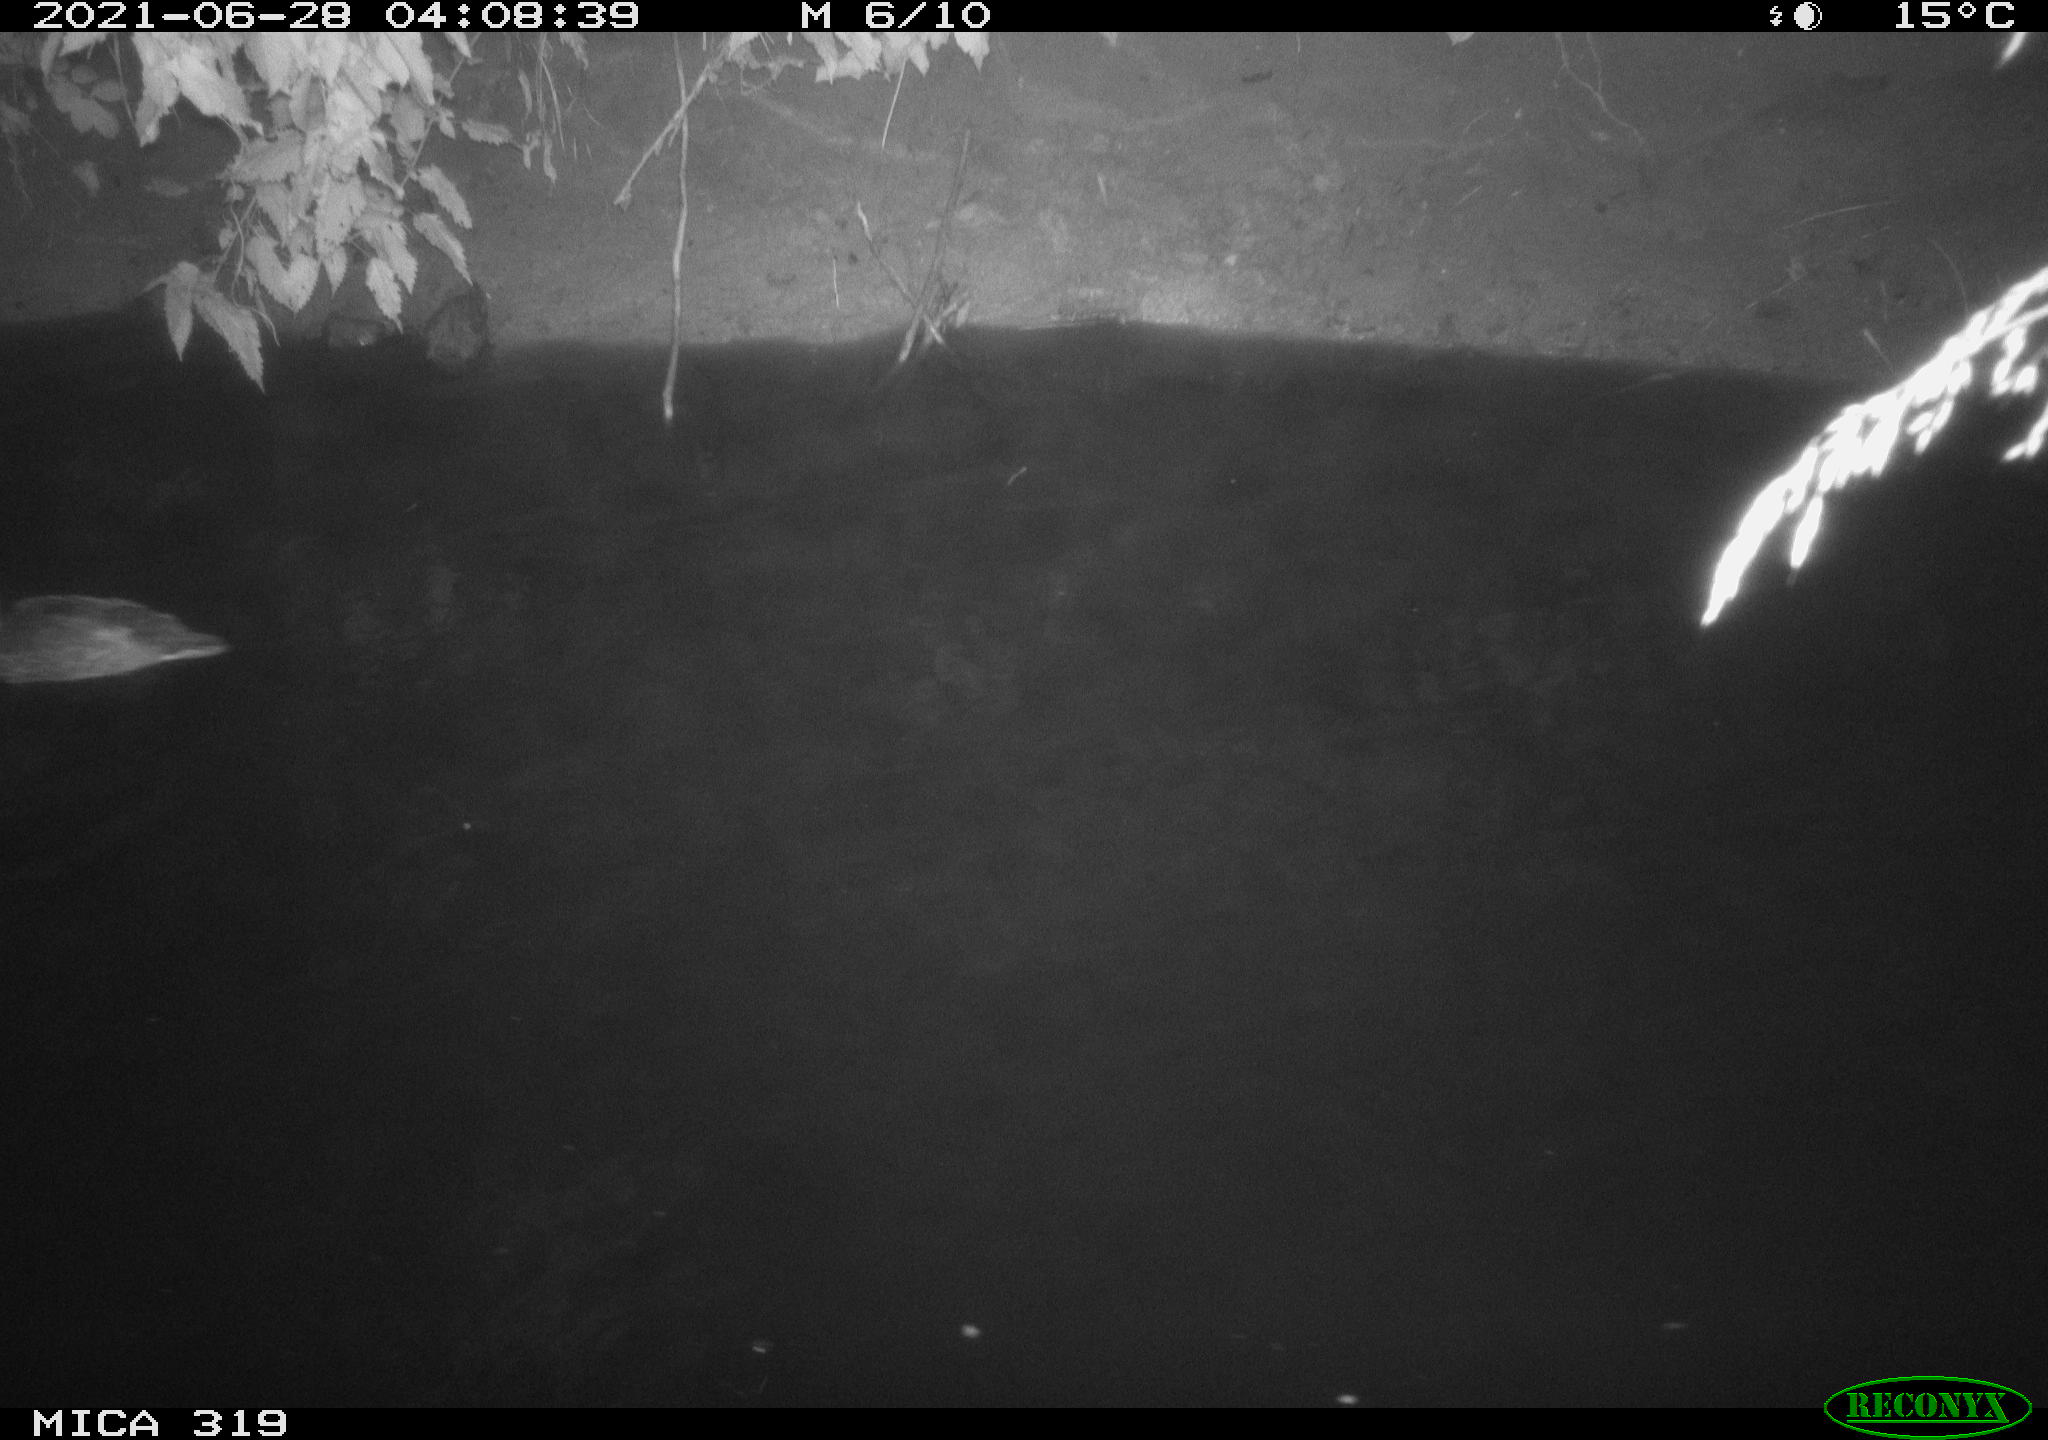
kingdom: Animalia
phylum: Chordata
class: Aves
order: Anseriformes
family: Anatidae
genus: Anas
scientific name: Anas platyrhynchos
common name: Mallard
